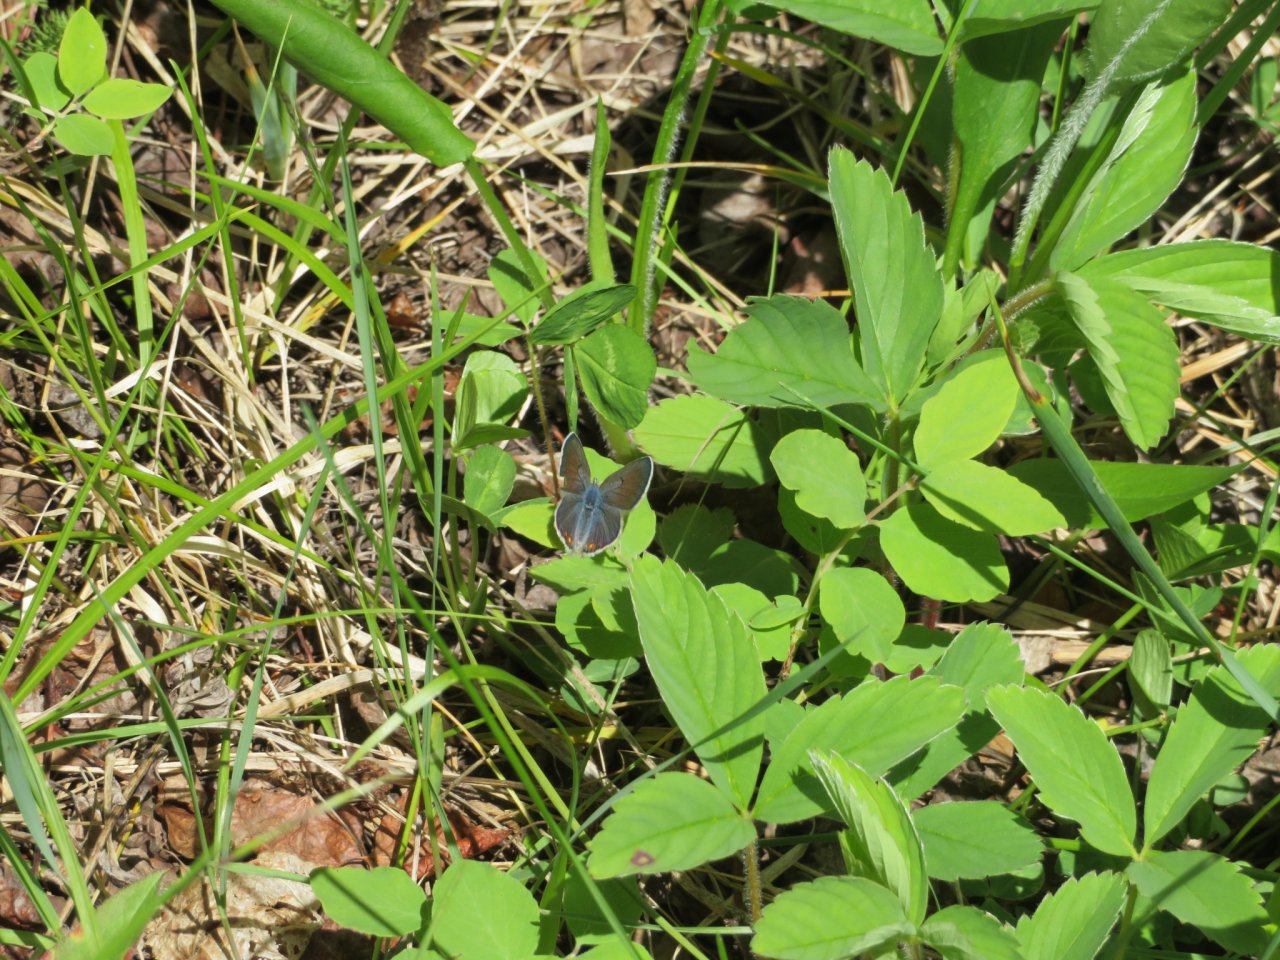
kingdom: Animalia
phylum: Arthropoda
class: Insecta
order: Lepidoptera
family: Lycaenidae
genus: Plebejus
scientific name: Plebejus saepiolus
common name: Greenish Blue
